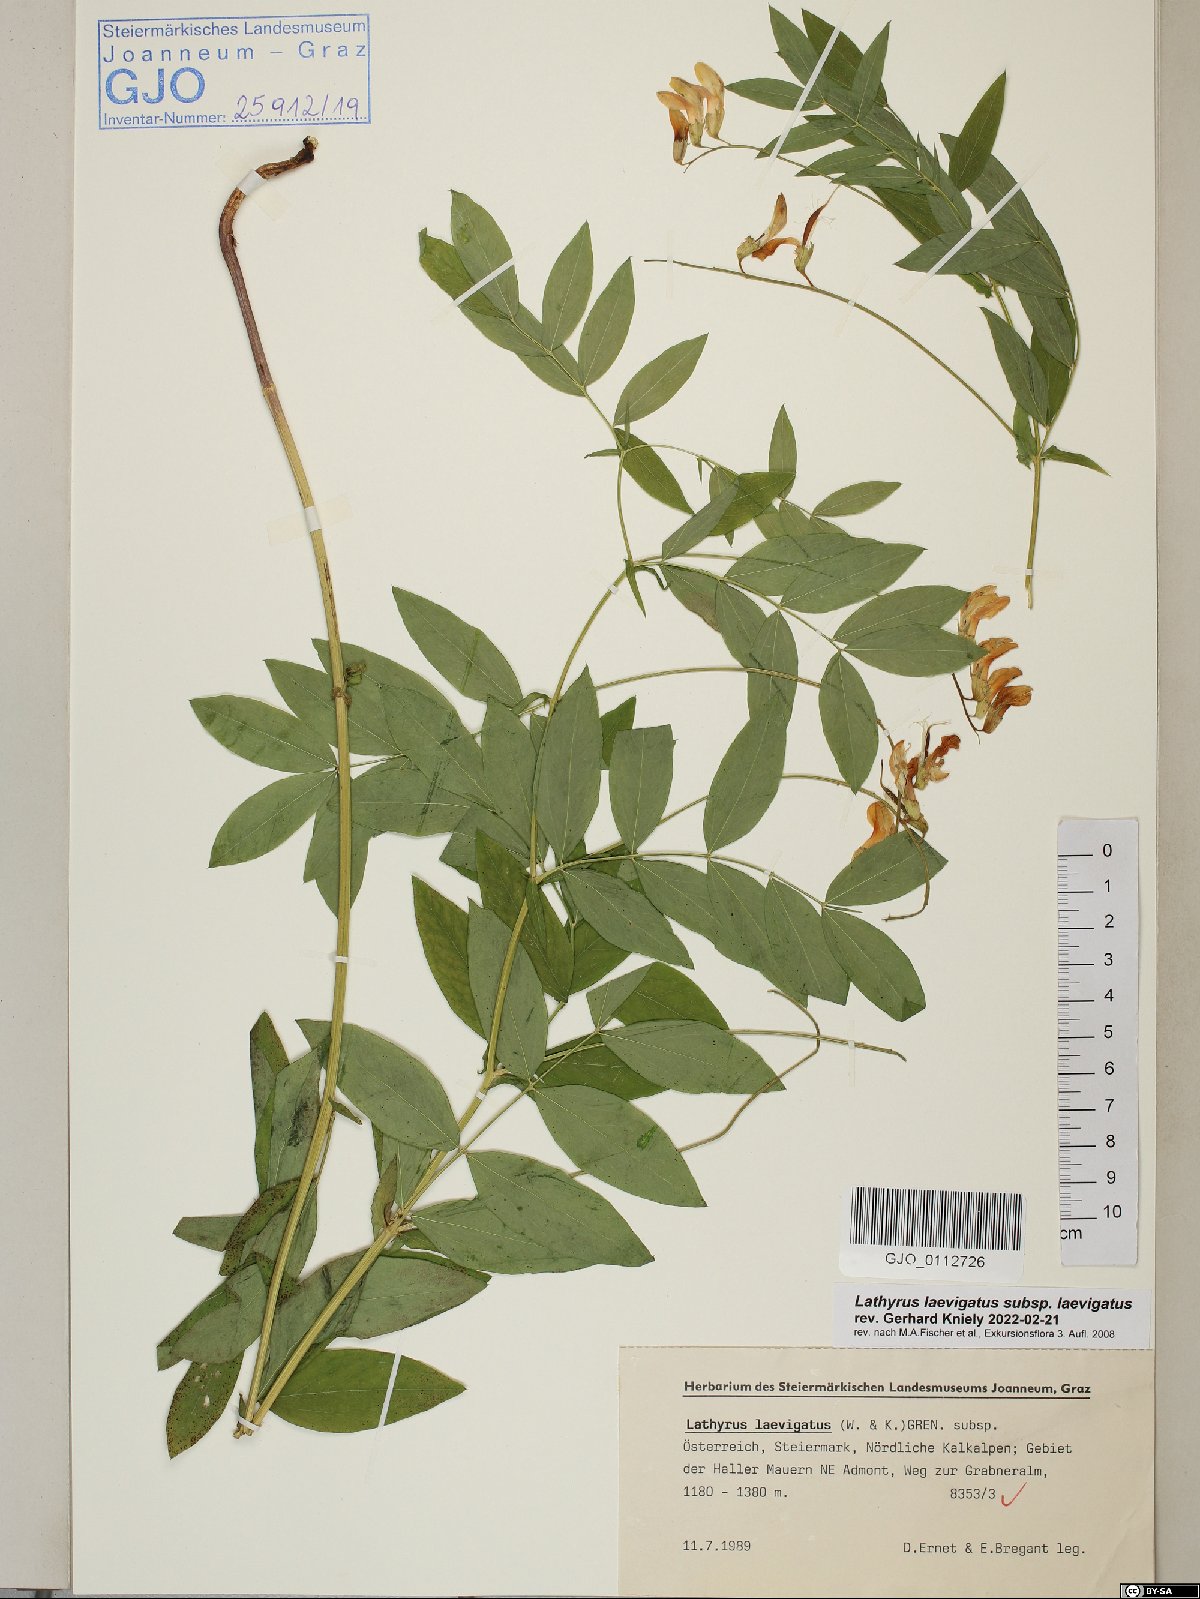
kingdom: Plantae
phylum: Tracheophyta
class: Magnoliopsida
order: Fabales
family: Fabaceae
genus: Lathyrus
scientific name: Lathyrus laevigatus
